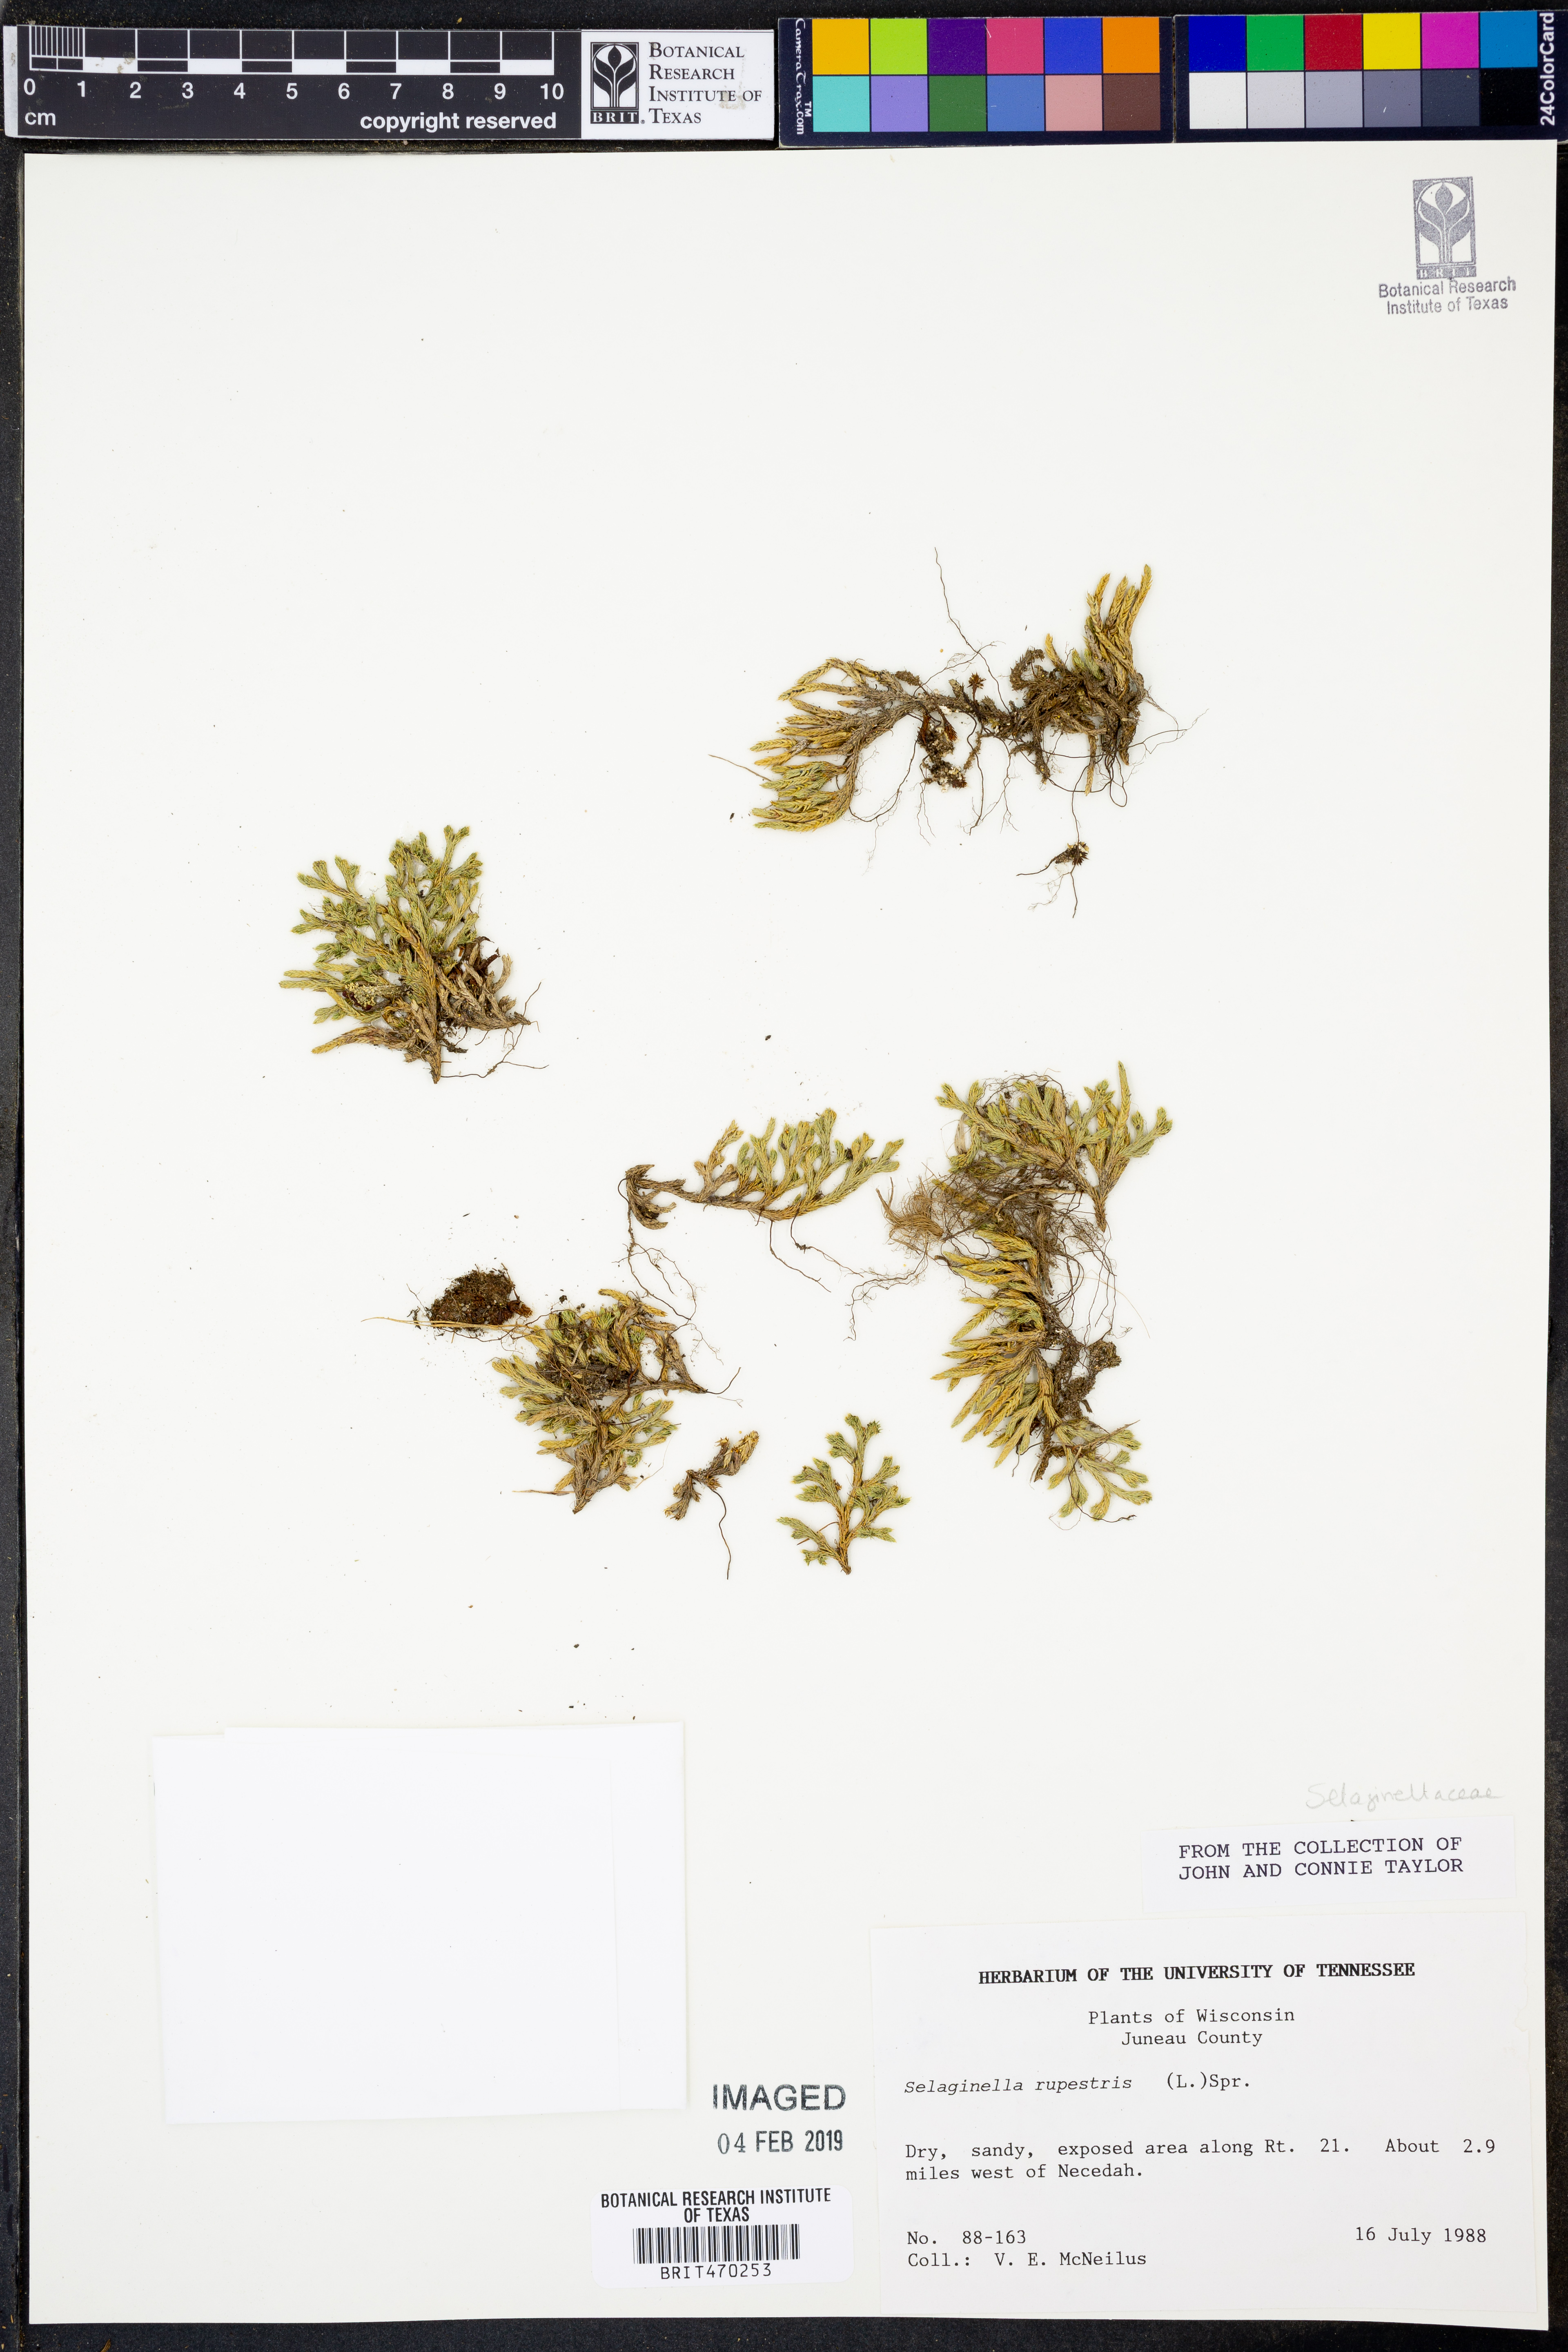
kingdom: Plantae
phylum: Tracheophyta
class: Lycopodiopsida
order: Selaginellales
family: Selaginellaceae
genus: Selaginella
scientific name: Selaginella rupestris
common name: Dwarf spikemoss
